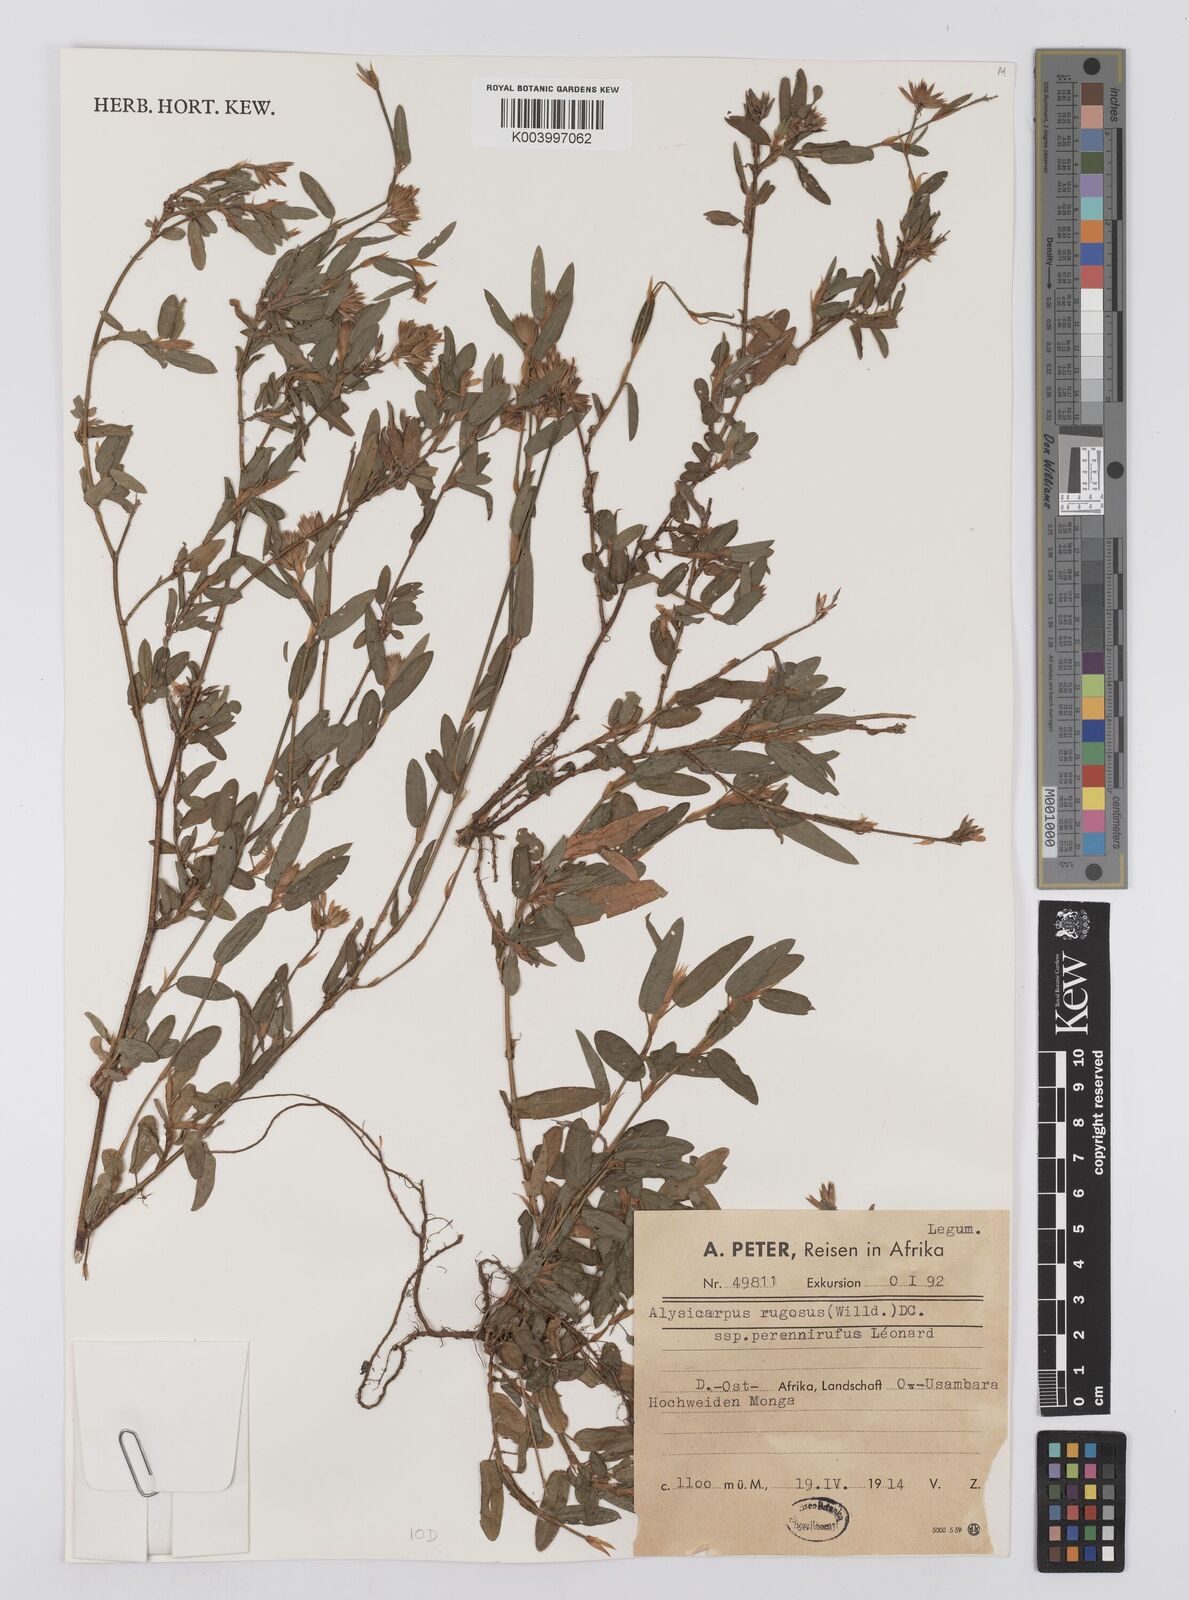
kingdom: Plantae
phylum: Tracheophyta
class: Magnoliopsida
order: Fabales
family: Fabaceae
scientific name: Fabaceae
